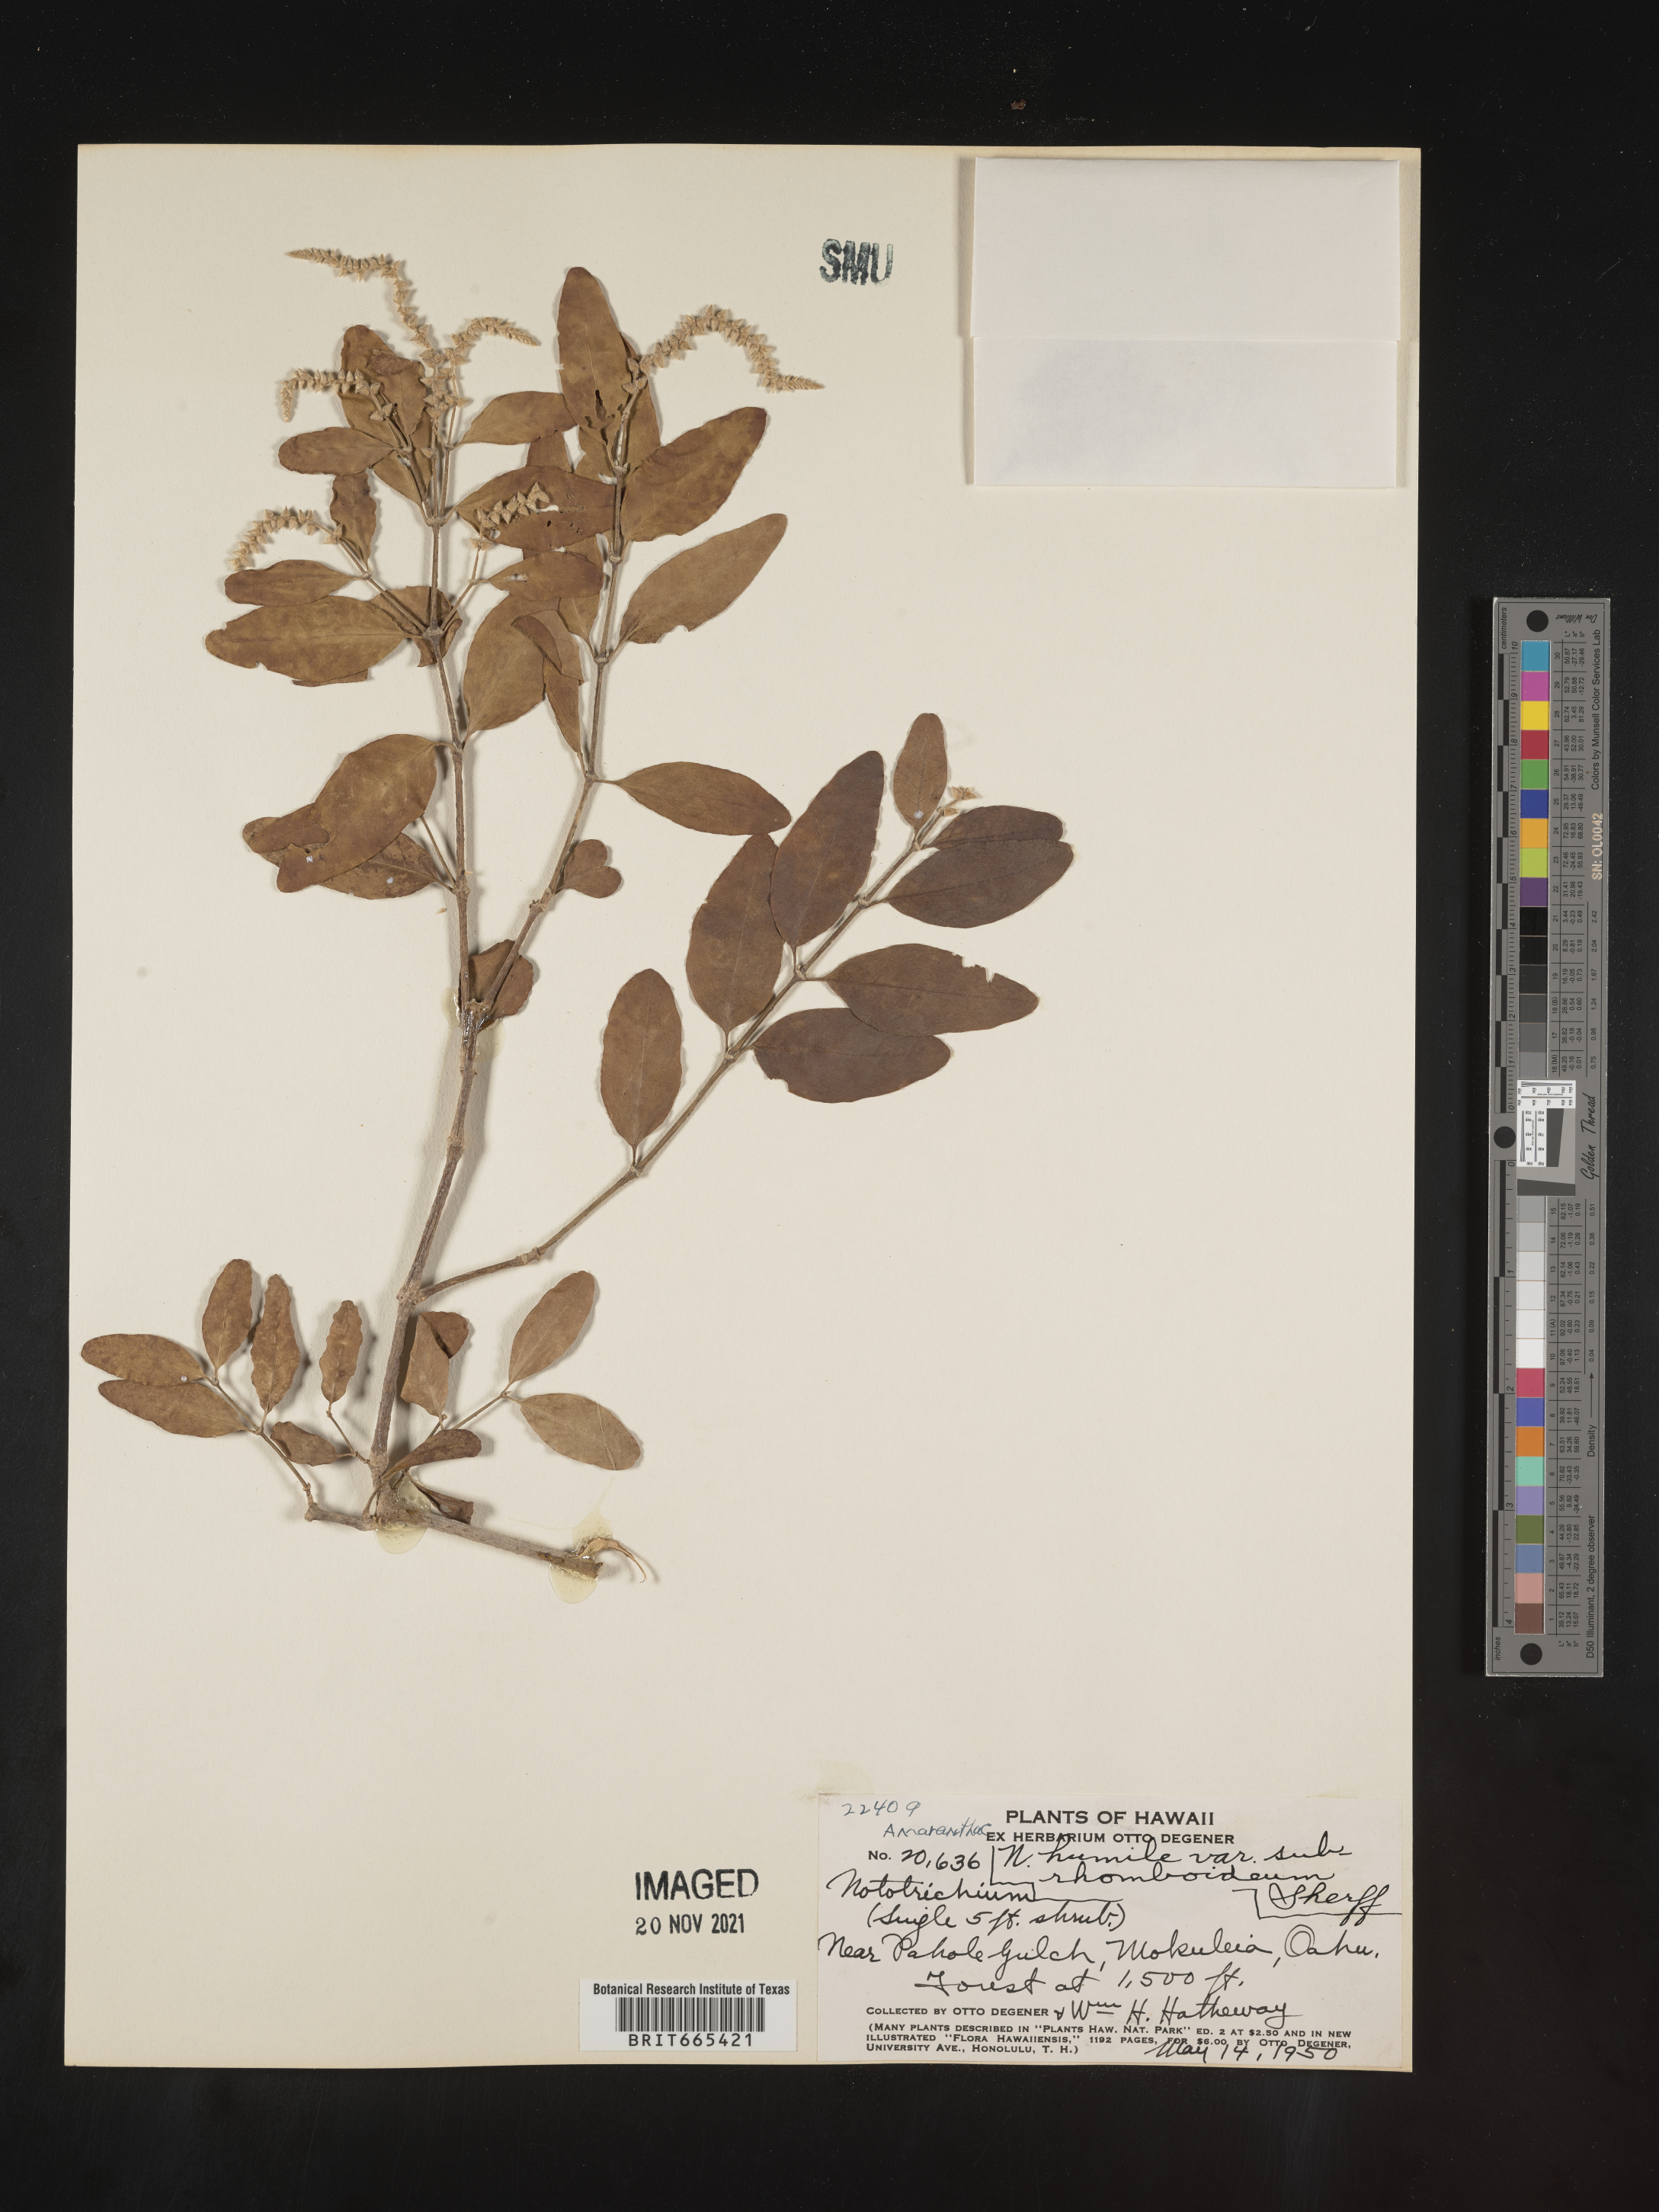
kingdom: Plantae
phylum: Tracheophyta
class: Magnoliopsida
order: Caryophyllales
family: Amaranthaceae
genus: Nototrichium
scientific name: Nototrichium
